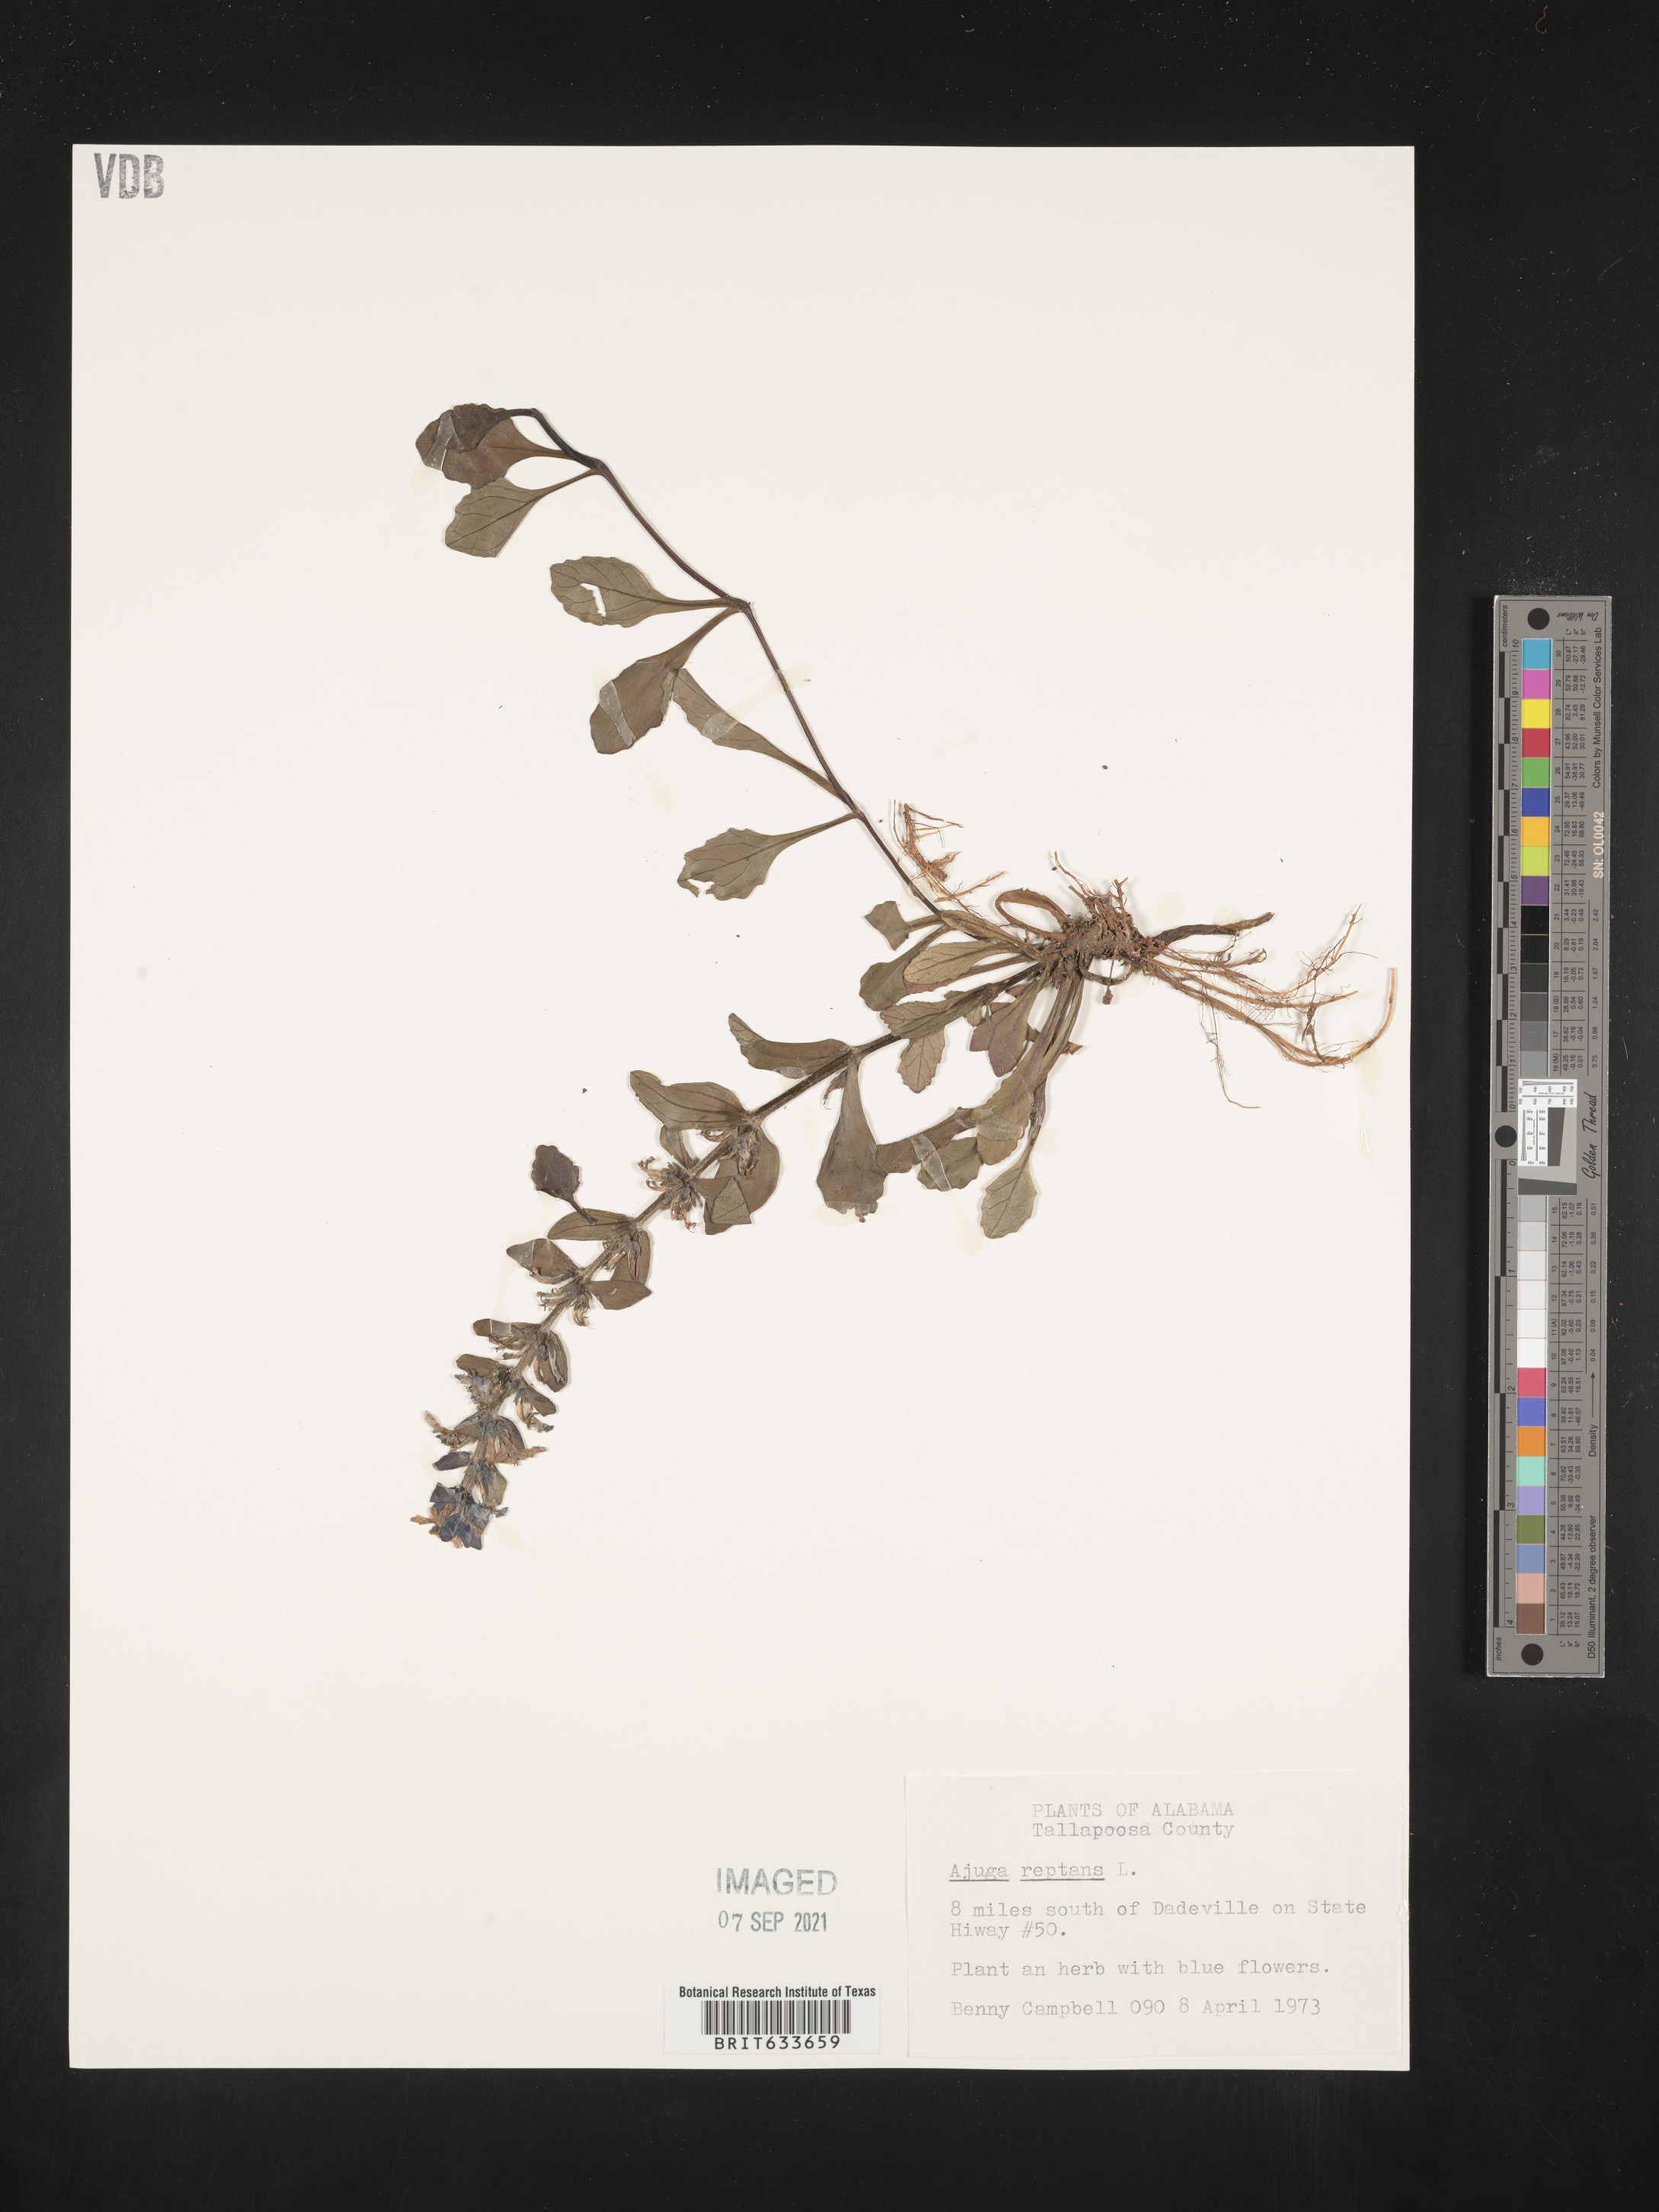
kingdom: Plantae
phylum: Tracheophyta
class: Magnoliopsida
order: Lamiales
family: Lamiaceae
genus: Ajuga
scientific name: Ajuga
